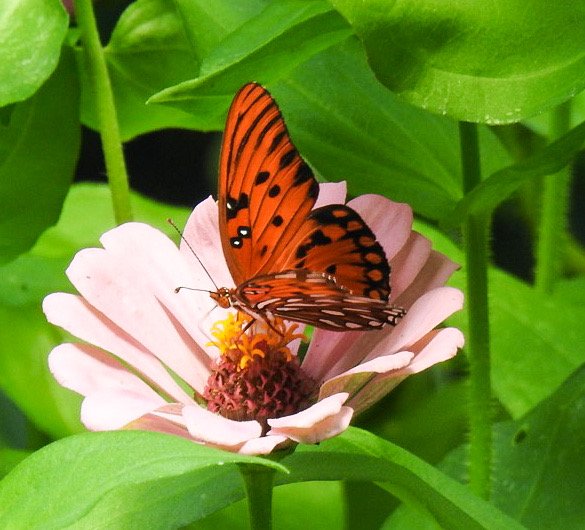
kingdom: Animalia
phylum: Arthropoda
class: Insecta
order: Lepidoptera
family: Nymphalidae
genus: Dione
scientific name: Dione vanillae
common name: Gulf Fritillary
